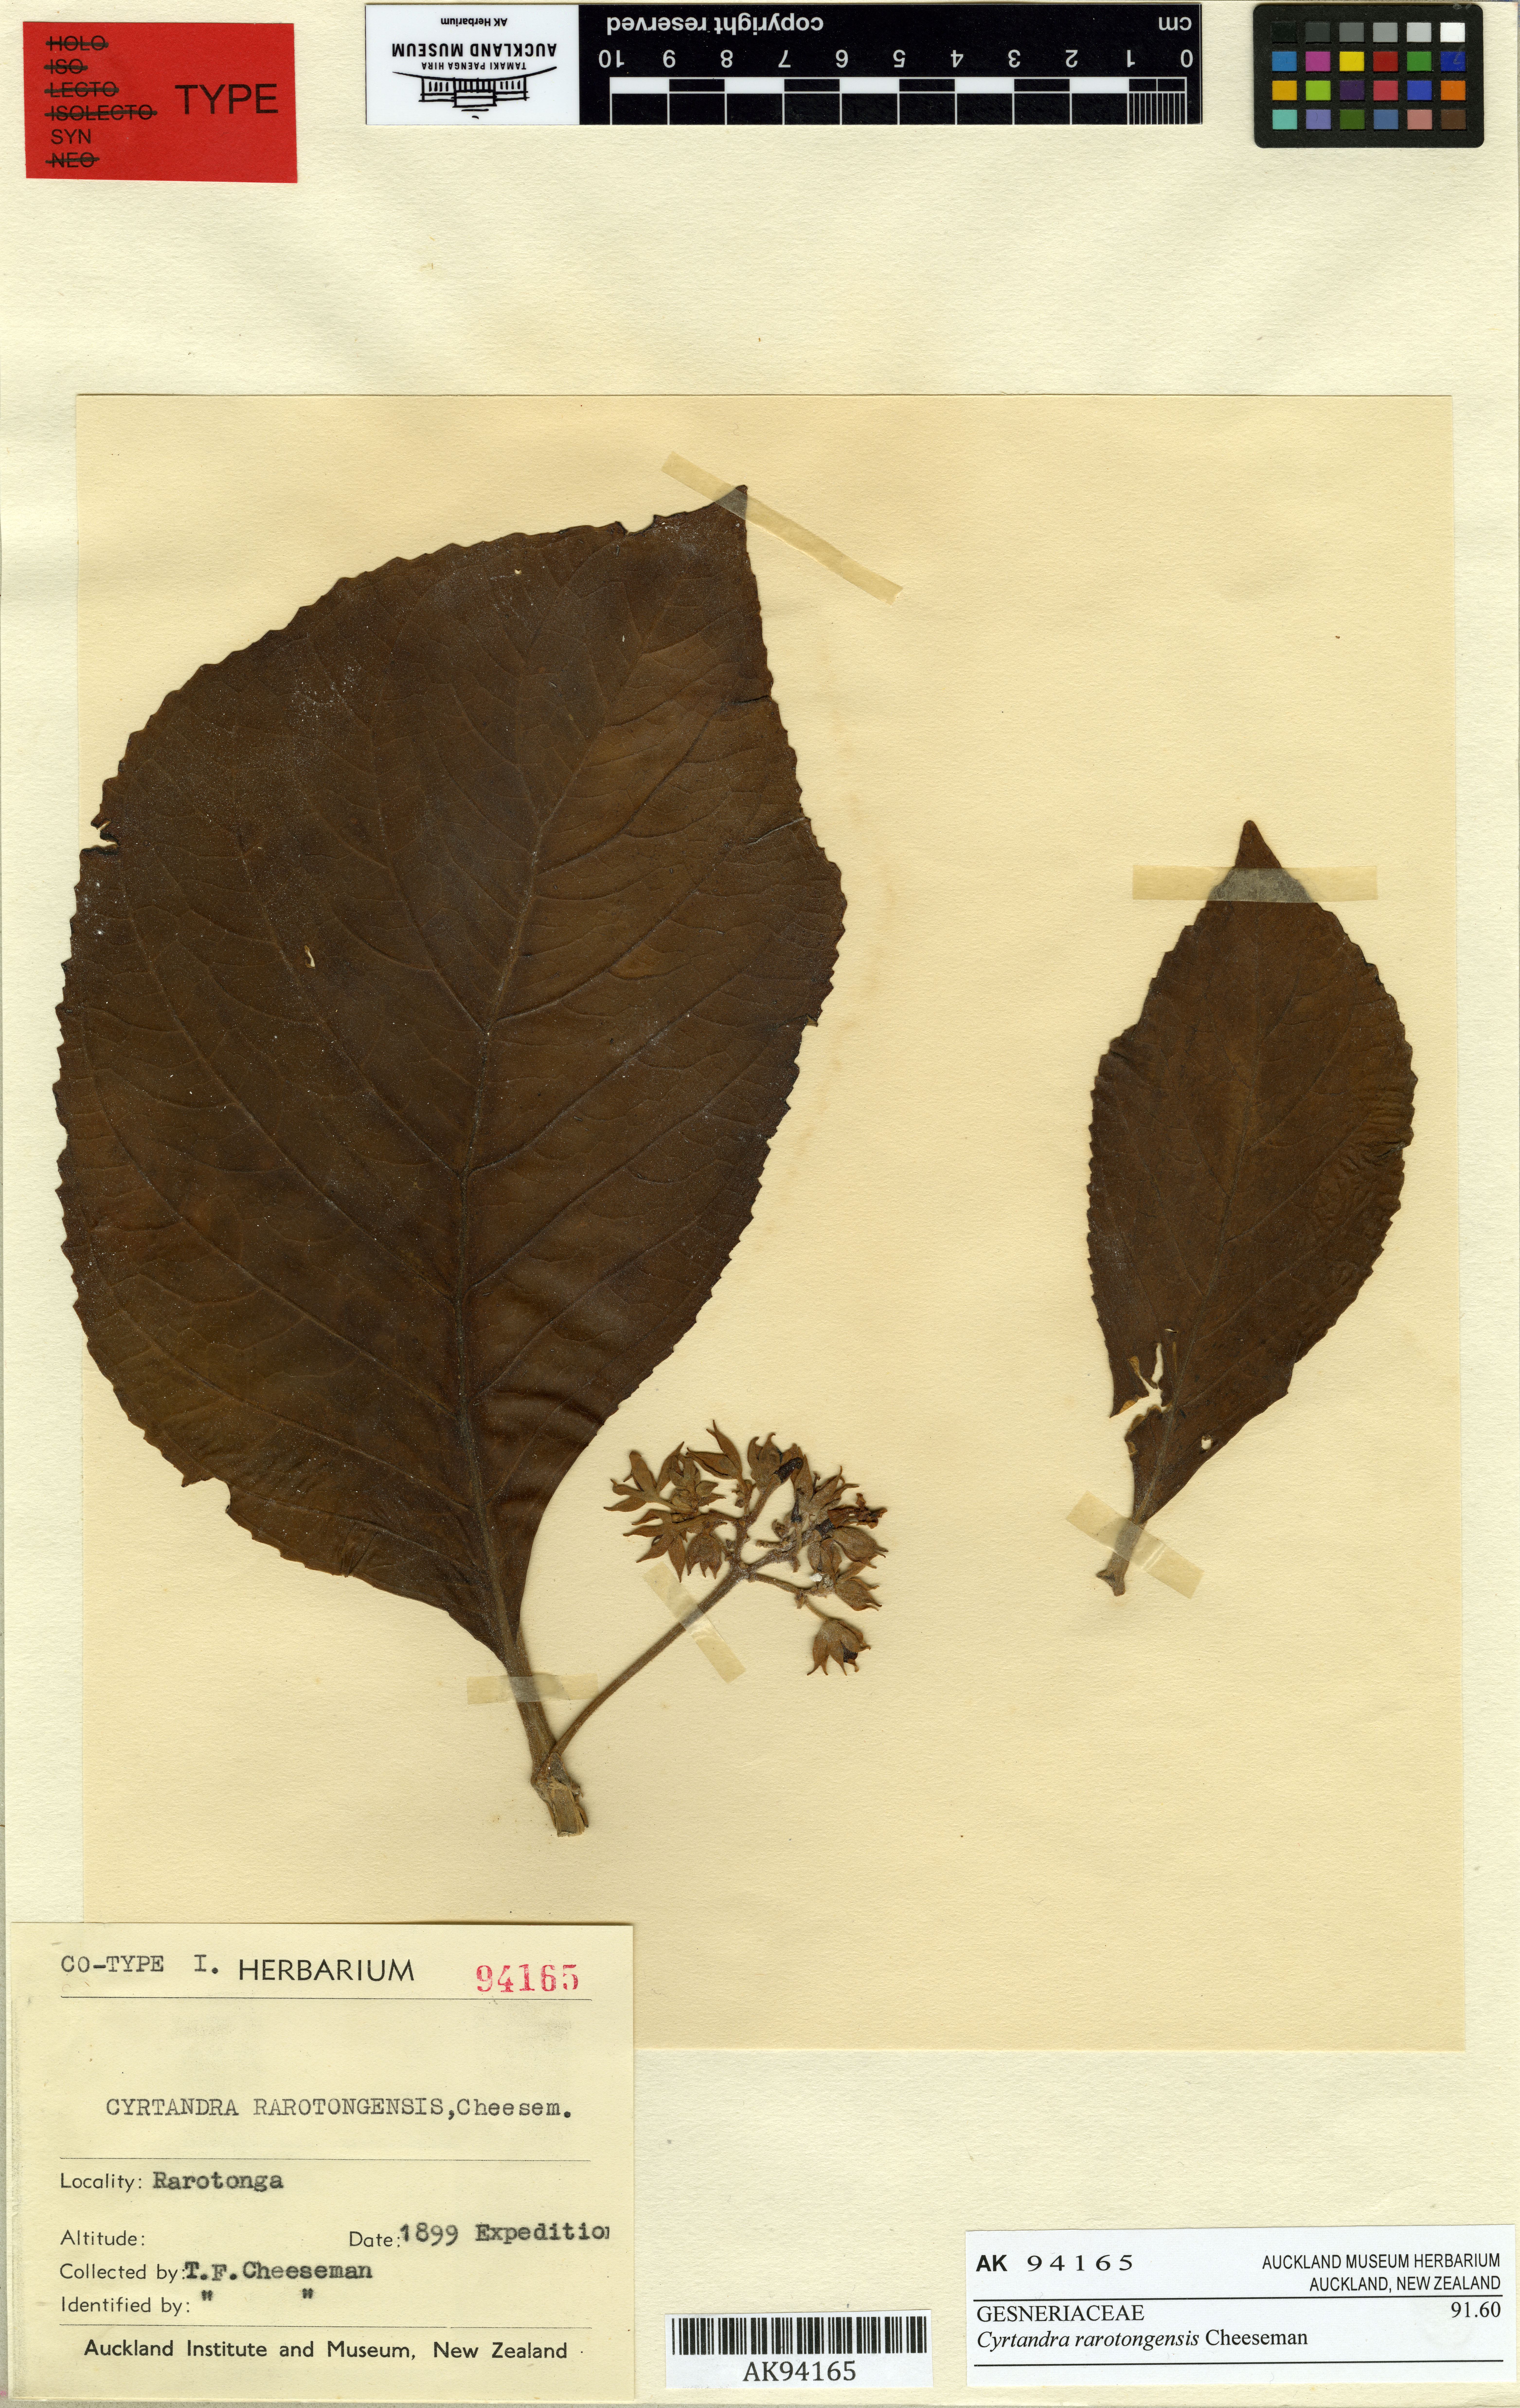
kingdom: Plantae
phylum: Tracheophyta
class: Magnoliopsida
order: Lamiales
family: Gesneriaceae
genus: Cyrtandra
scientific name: Cyrtandra rarotongensis
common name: Rarotonga cyrtandra
